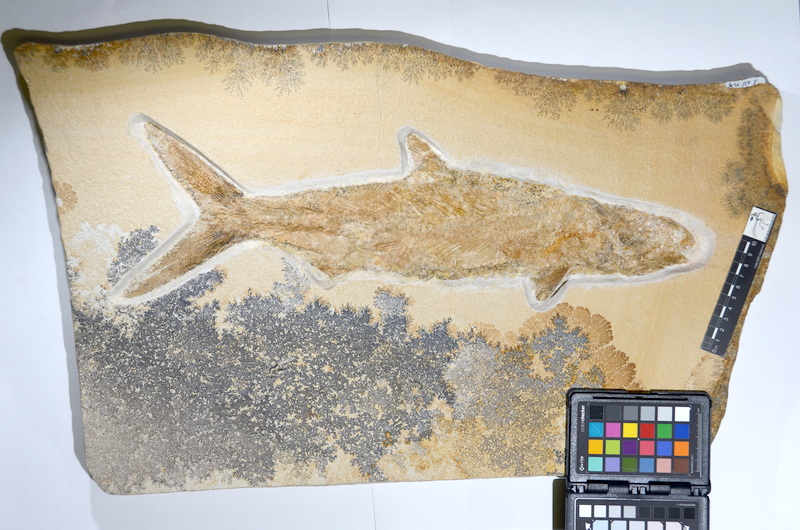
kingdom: Animalia
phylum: Chordata
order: Amiiformes
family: Caturidae
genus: Caturus
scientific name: Caturus furcatus
